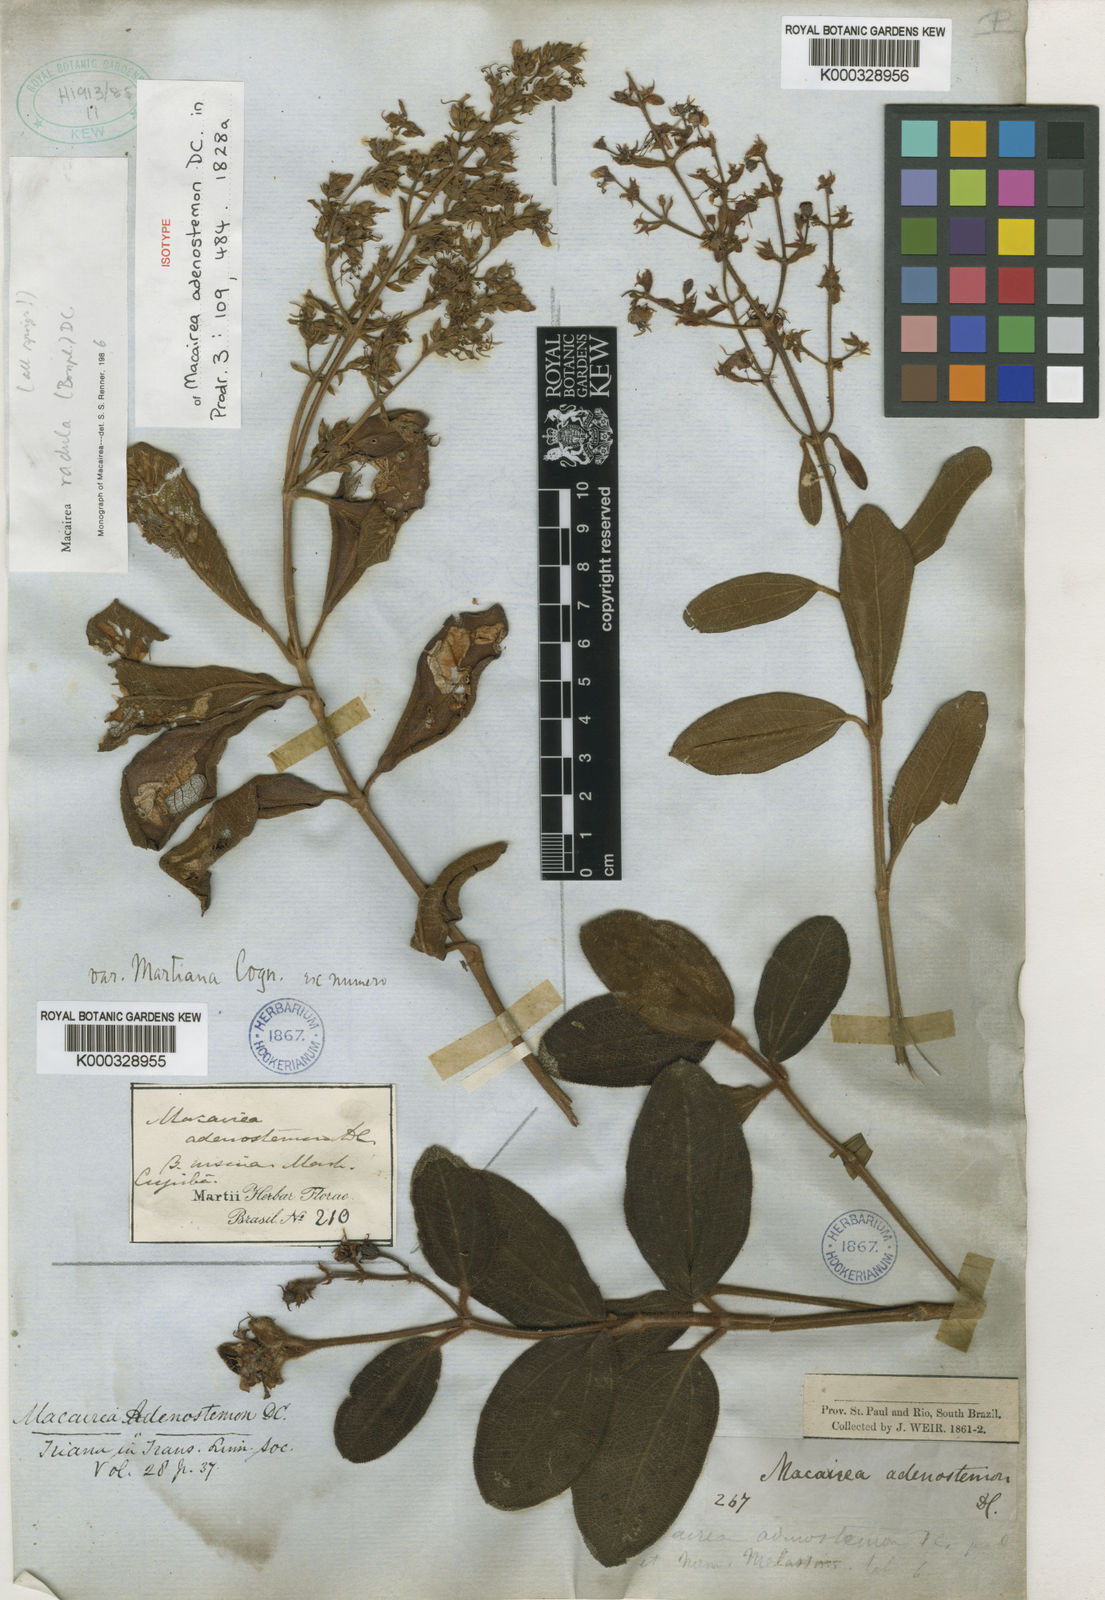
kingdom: Plantae
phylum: Tracheophyta
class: Magnoliopsida
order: Myrtales
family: Melastomataceae
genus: Macairea
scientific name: Macairea radula
